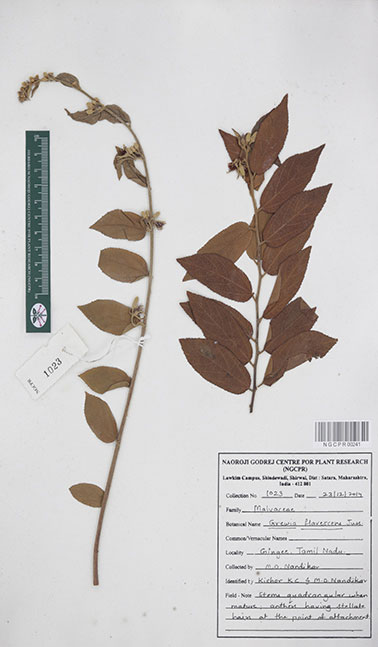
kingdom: Plantae
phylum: Tracheophyta
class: Magnoliopsida
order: Malvales
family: Malvaceae
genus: Grewia
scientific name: Grewia flavescens
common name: Sandpaper raisin
